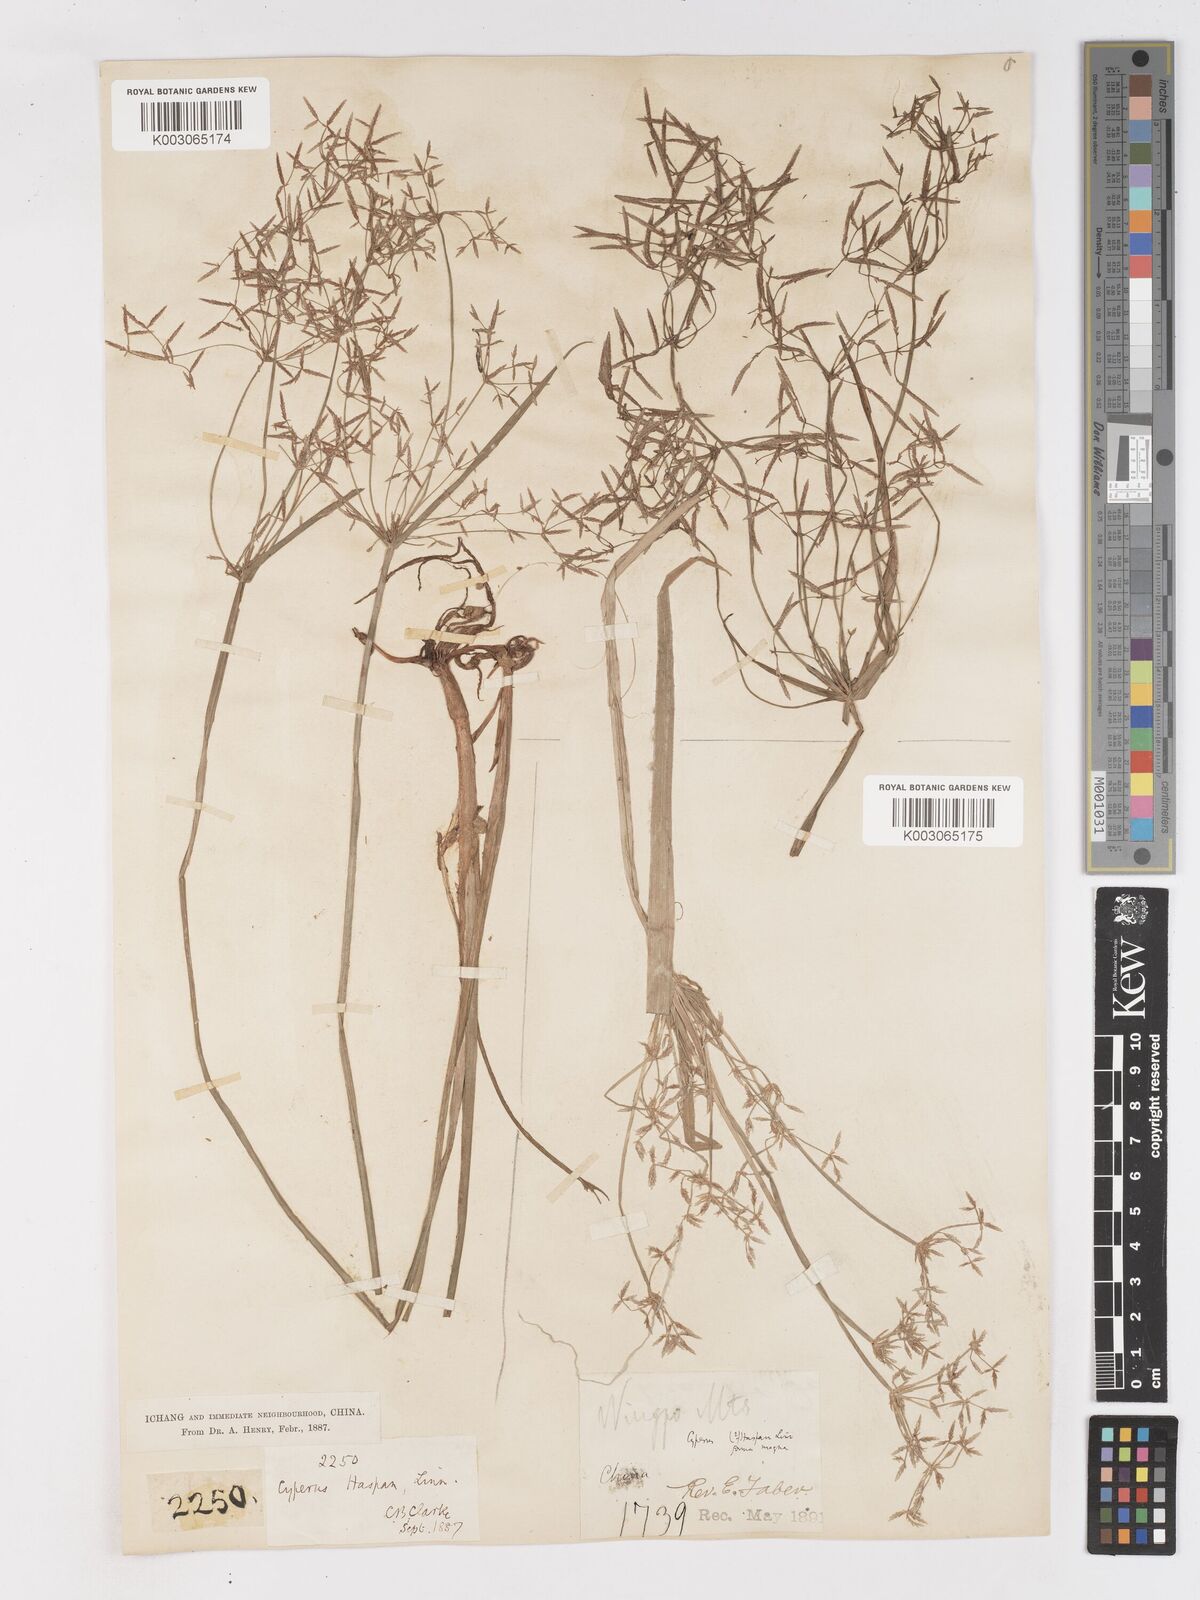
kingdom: Plantae
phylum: Tracheophyta
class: Liliopsida
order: Poales
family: Cyperaceae
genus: Cyperus
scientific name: Cyperus haspan
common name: Haspan flatsedge
